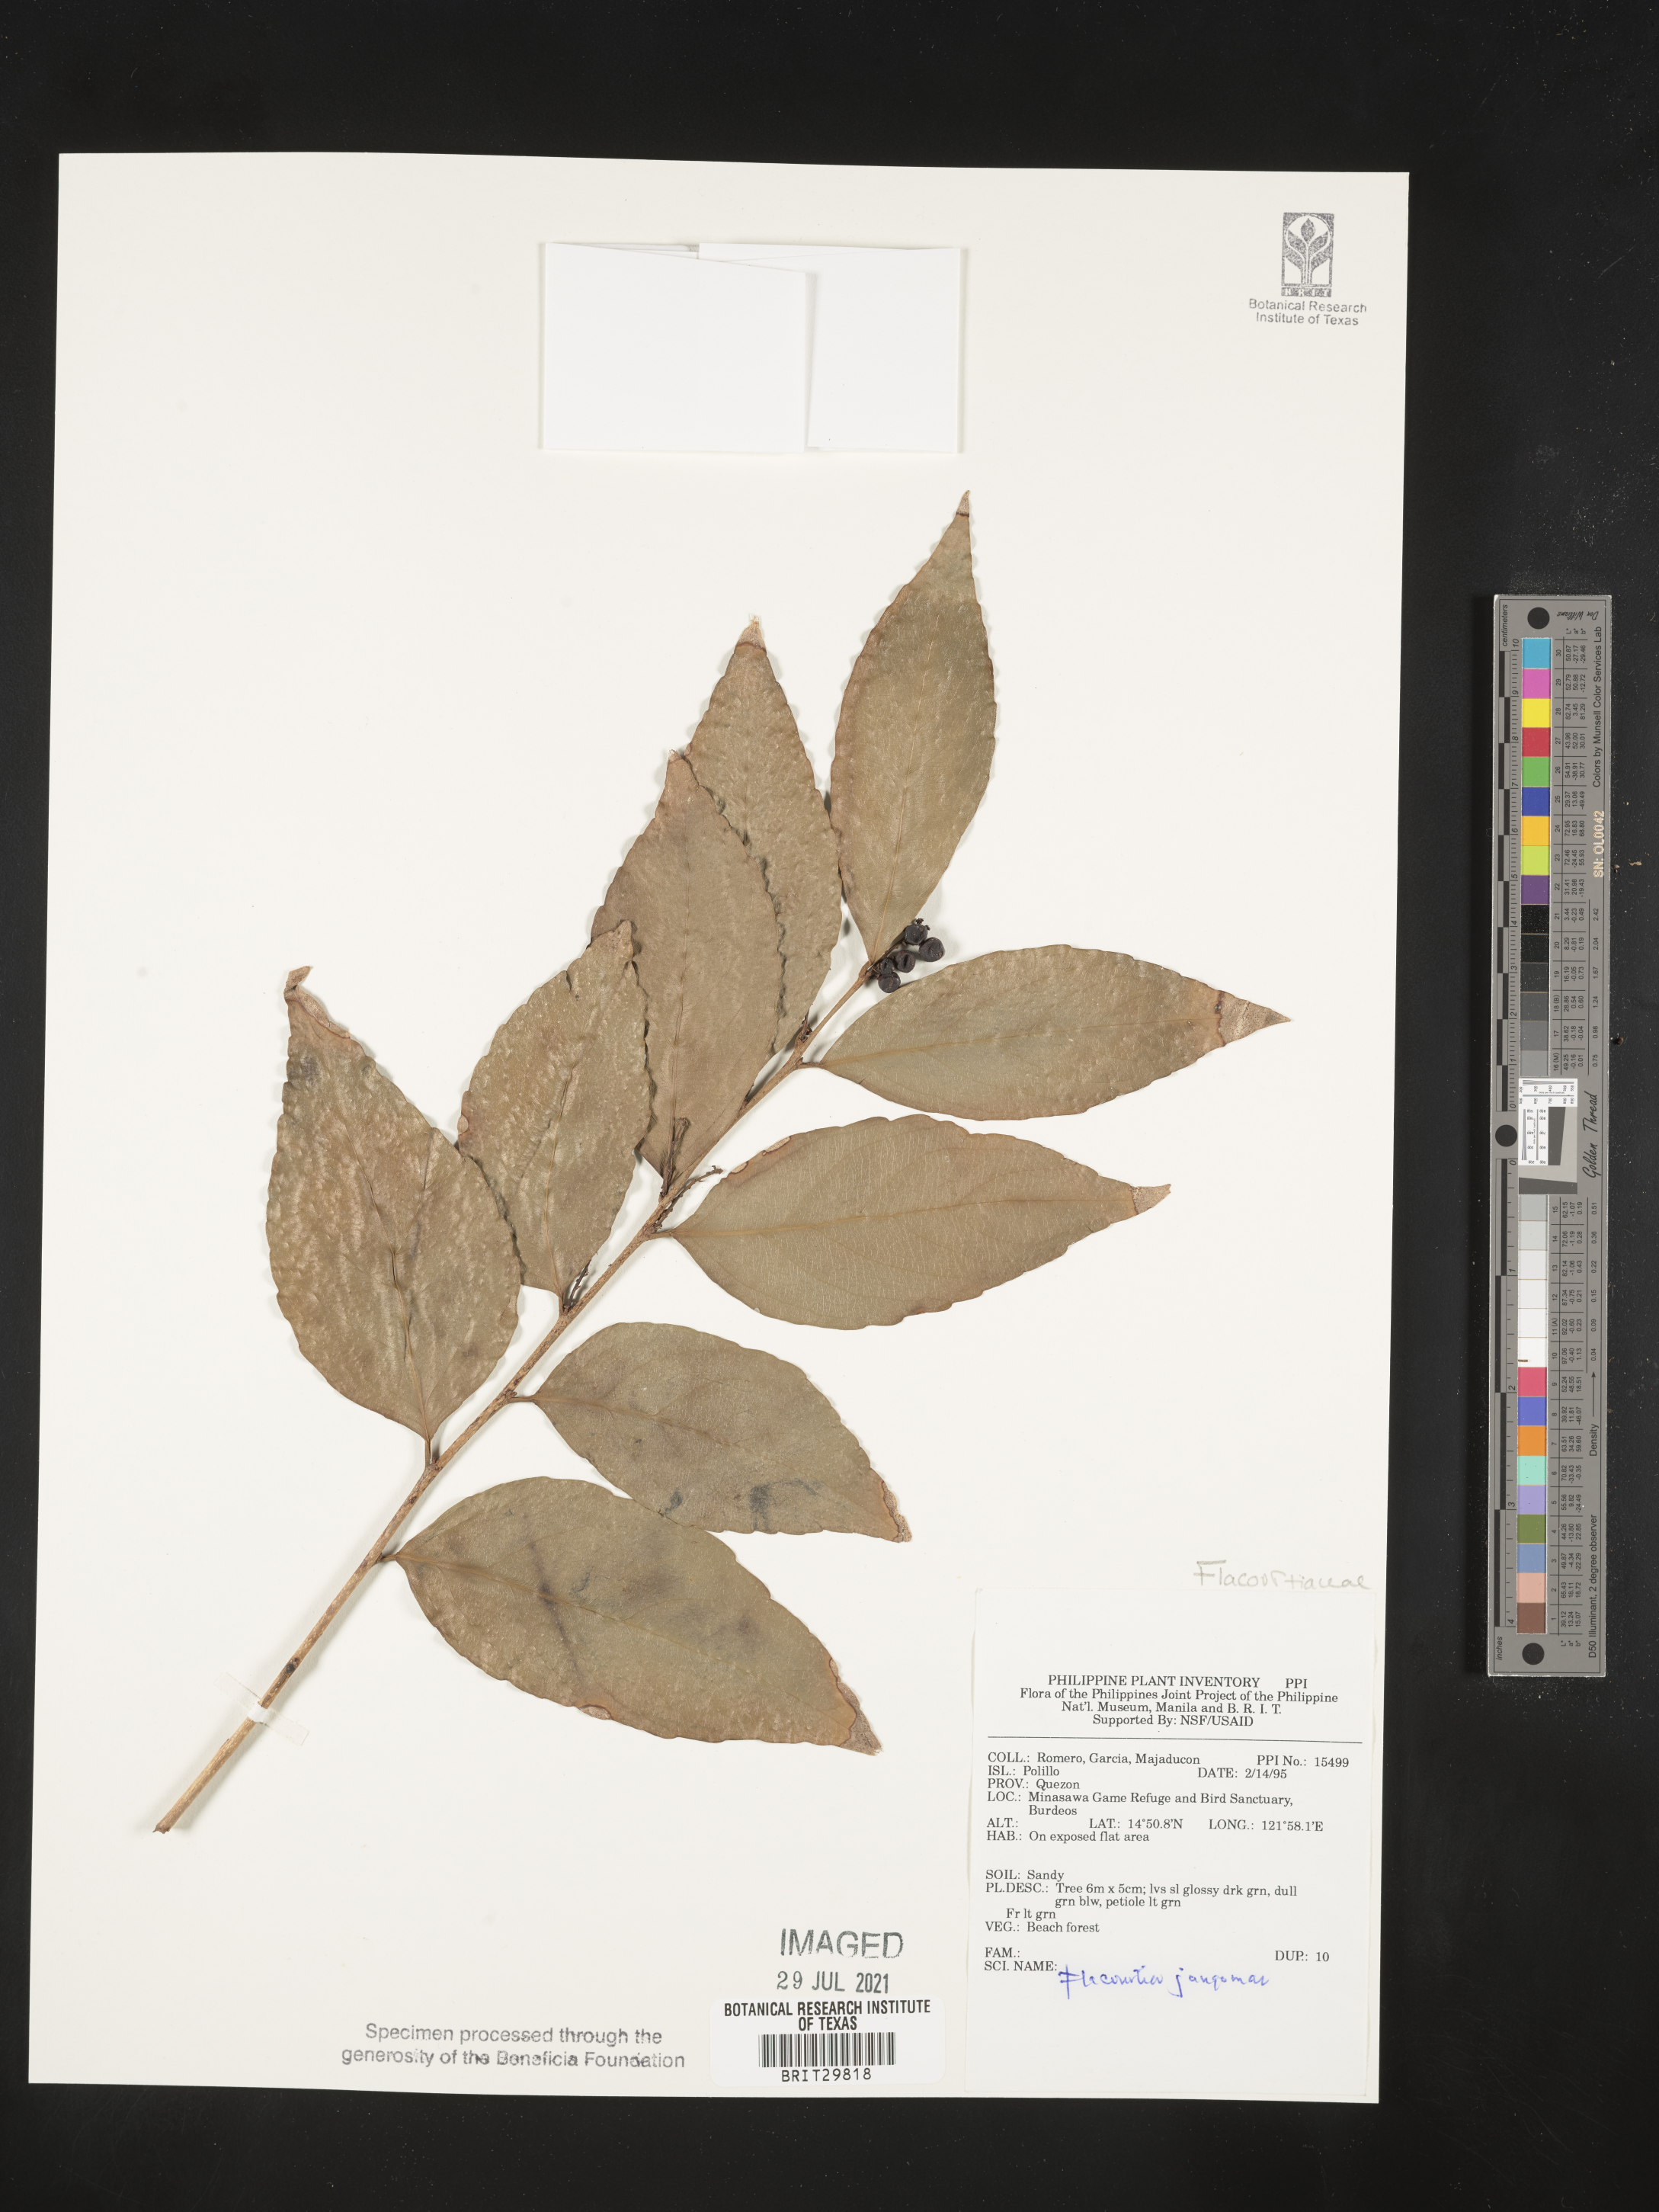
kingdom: Plantae
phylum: Tracheophyta
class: Magnoliopsida
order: Malpighiales
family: Salicaceae
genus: Flacourtia
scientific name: Flacourtia jangomas
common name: Indian-plum
